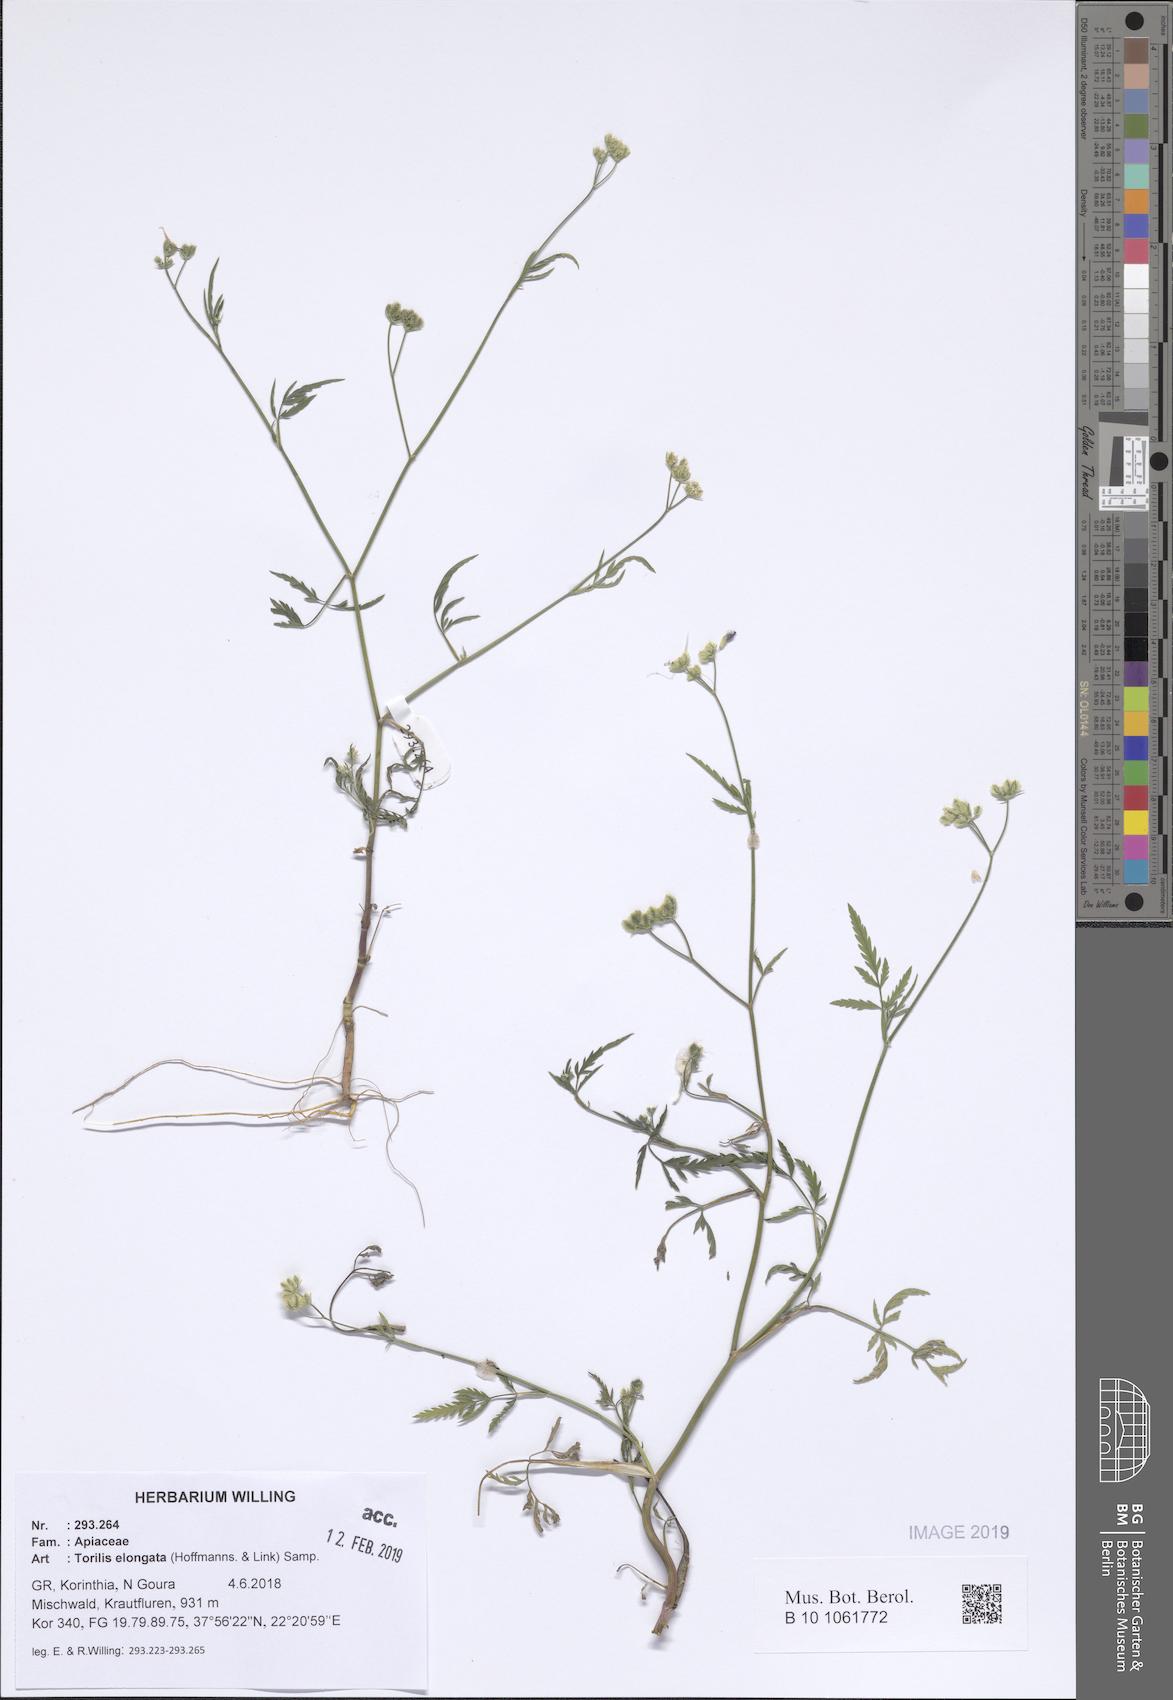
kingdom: Plantae
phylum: Tracheophyta
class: Magnoliopsida
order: Apiales
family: Apiaceae
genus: Torilis
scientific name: Torilis elongata
